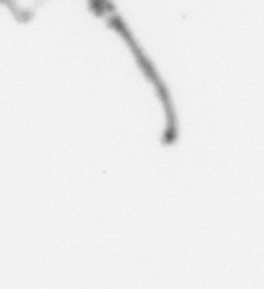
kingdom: Chromista
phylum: Ochrophyta
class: Bacillariophyceae
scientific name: Bacillariophyceae
